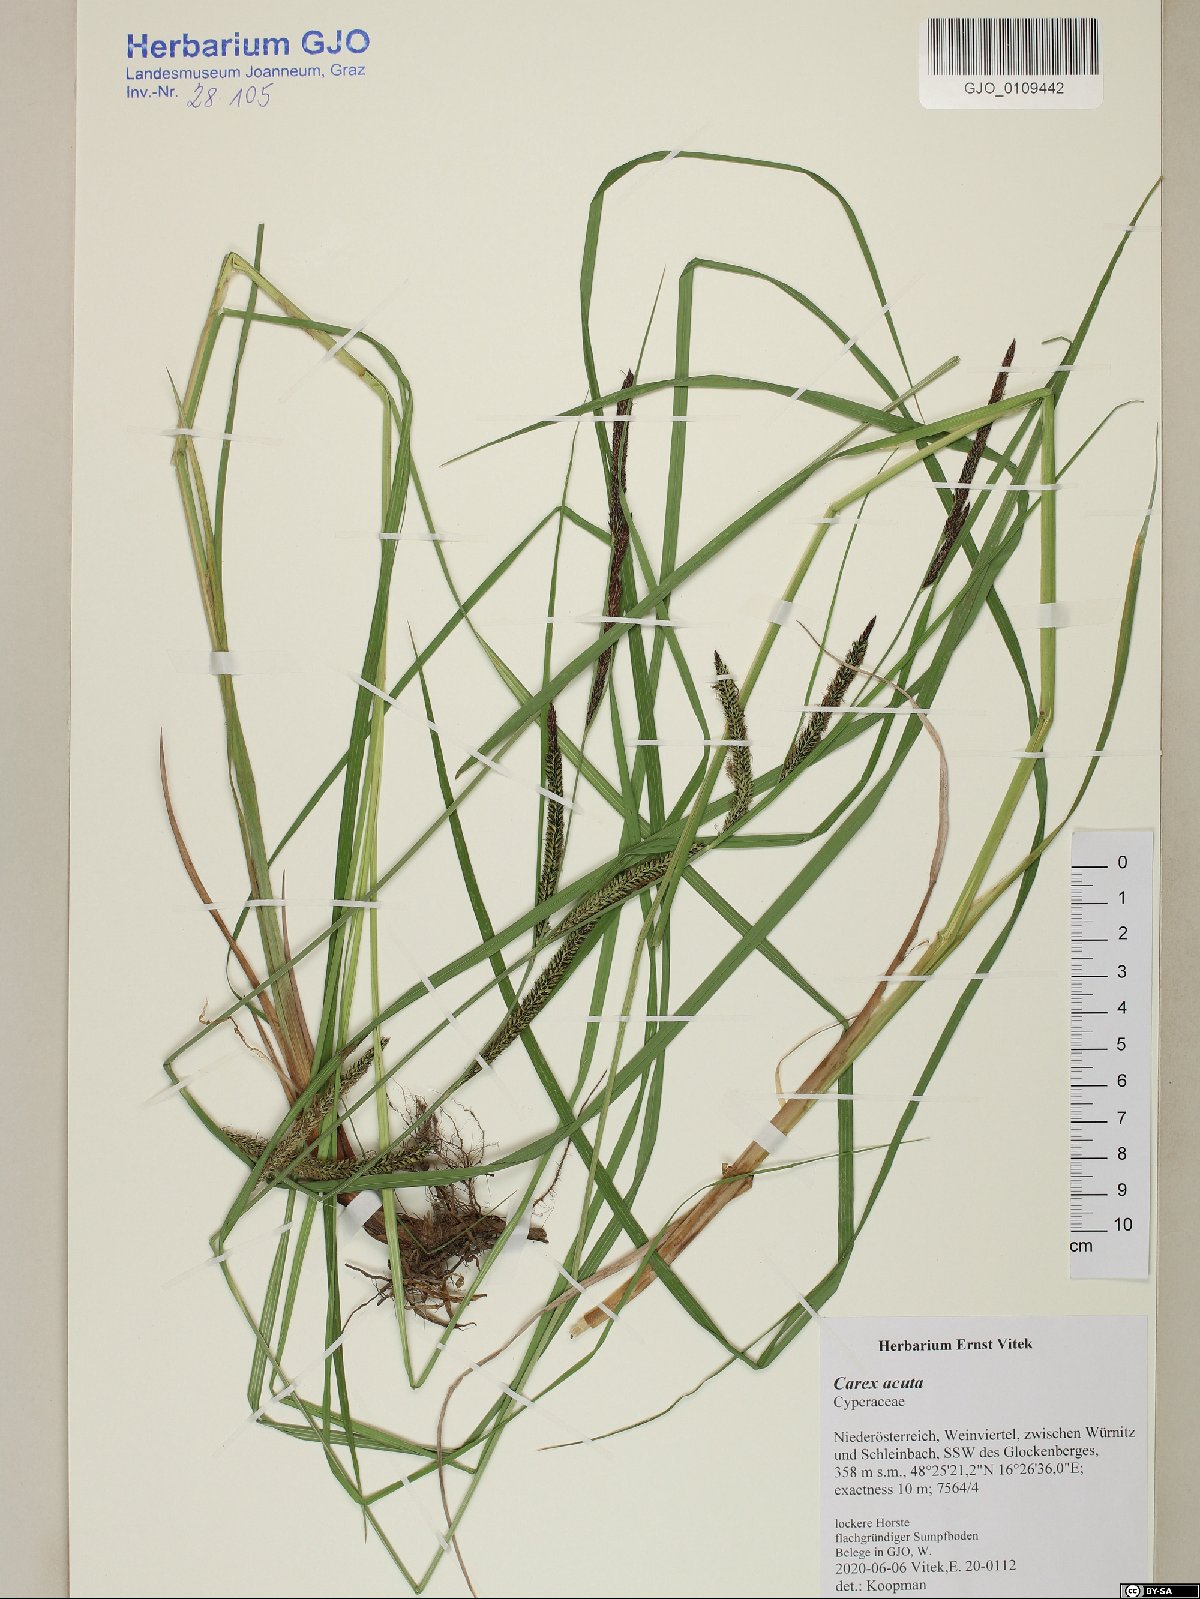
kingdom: Plantae
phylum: Tracheophyta
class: Liliopsida
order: Poales
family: Cyperaceae
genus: Carex
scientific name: Carex acuta
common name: Slender tufted-sedge
